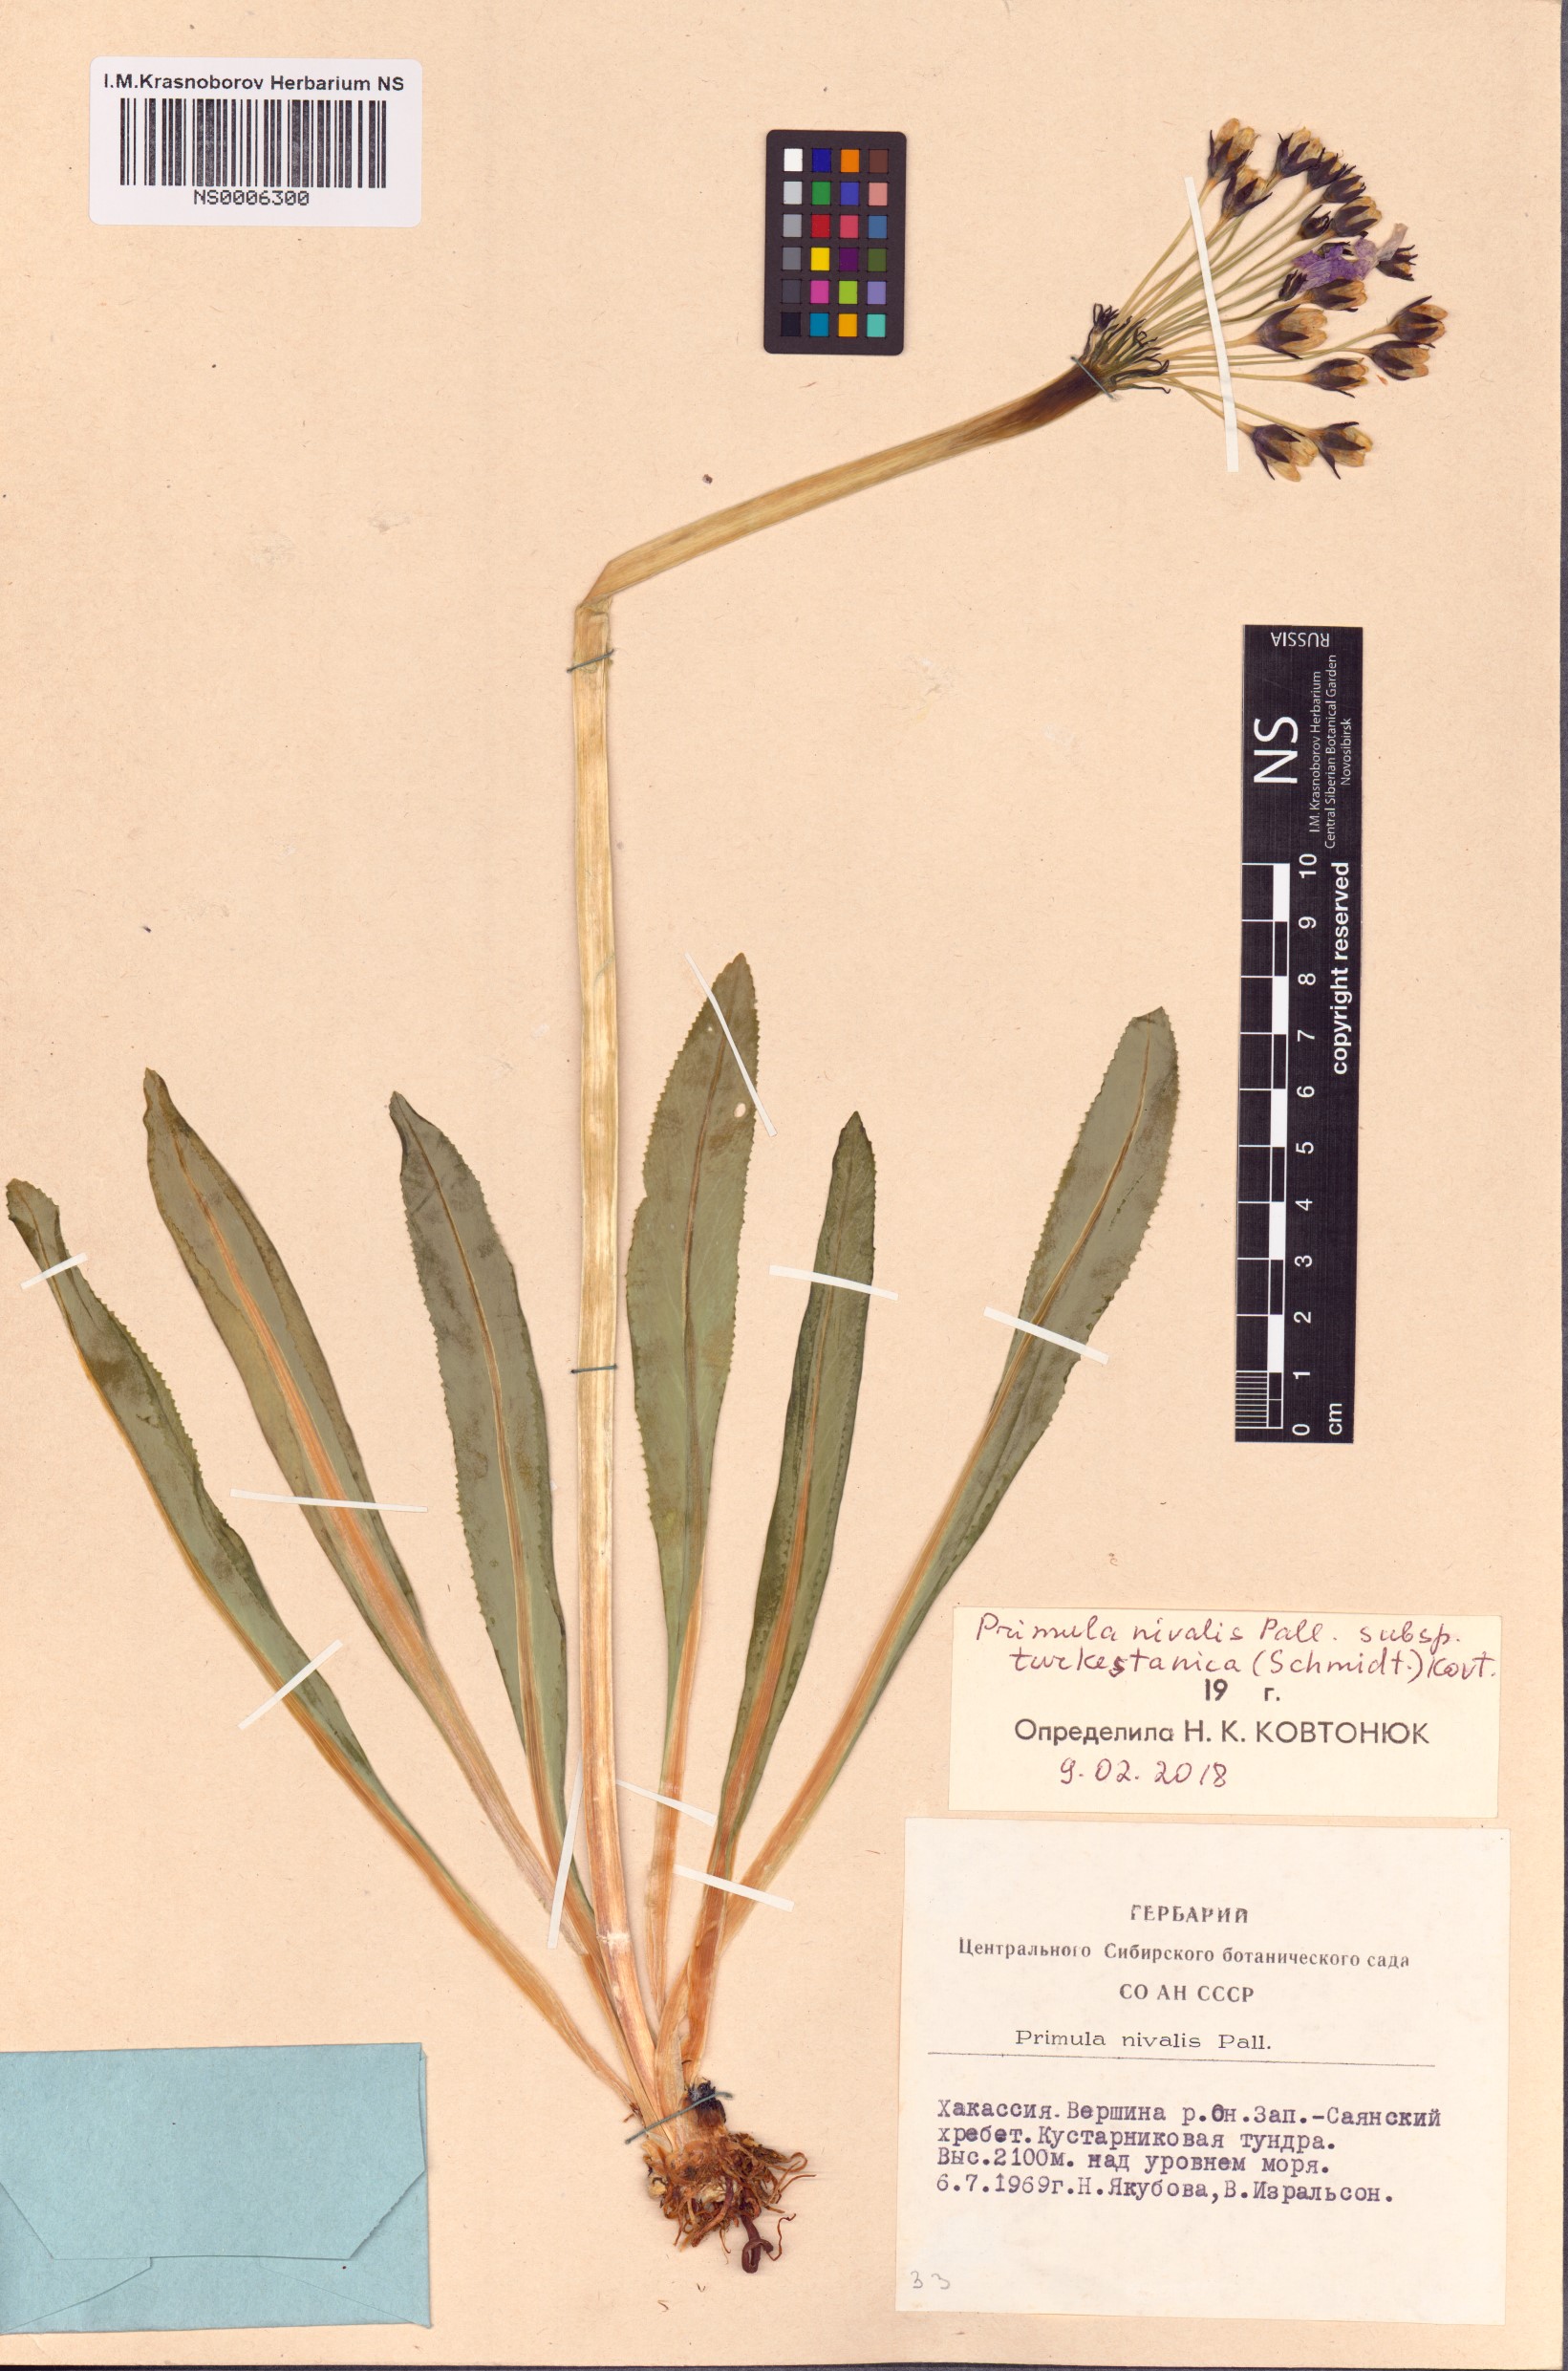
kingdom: Plantae
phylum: Tracheophyta
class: Magnoliopsida
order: Ericales
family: Primulaceae
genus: Primula
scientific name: Primula nivalis
